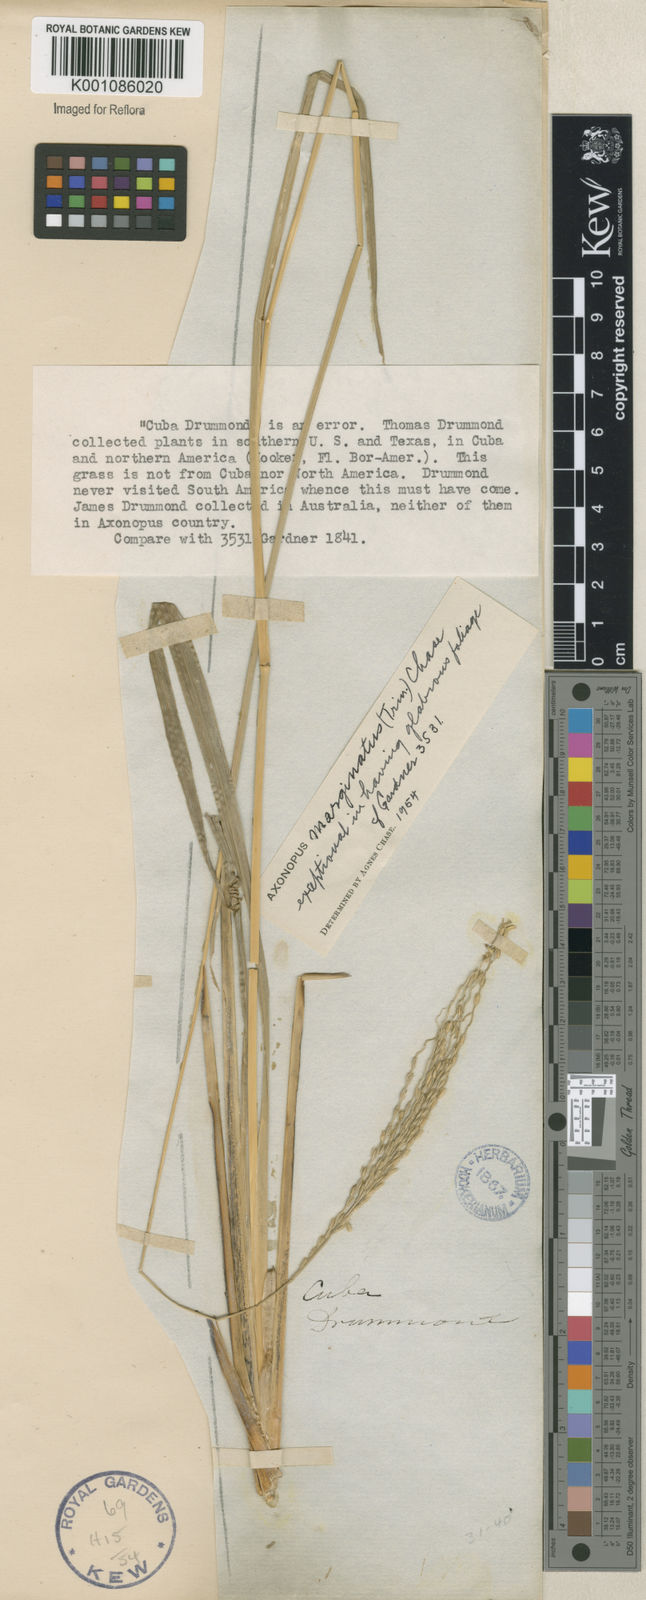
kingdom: Plantae
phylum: Tracheophyta
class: Liliopsida
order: Poales
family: Poaceae
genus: Axonopus
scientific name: Axonopus
